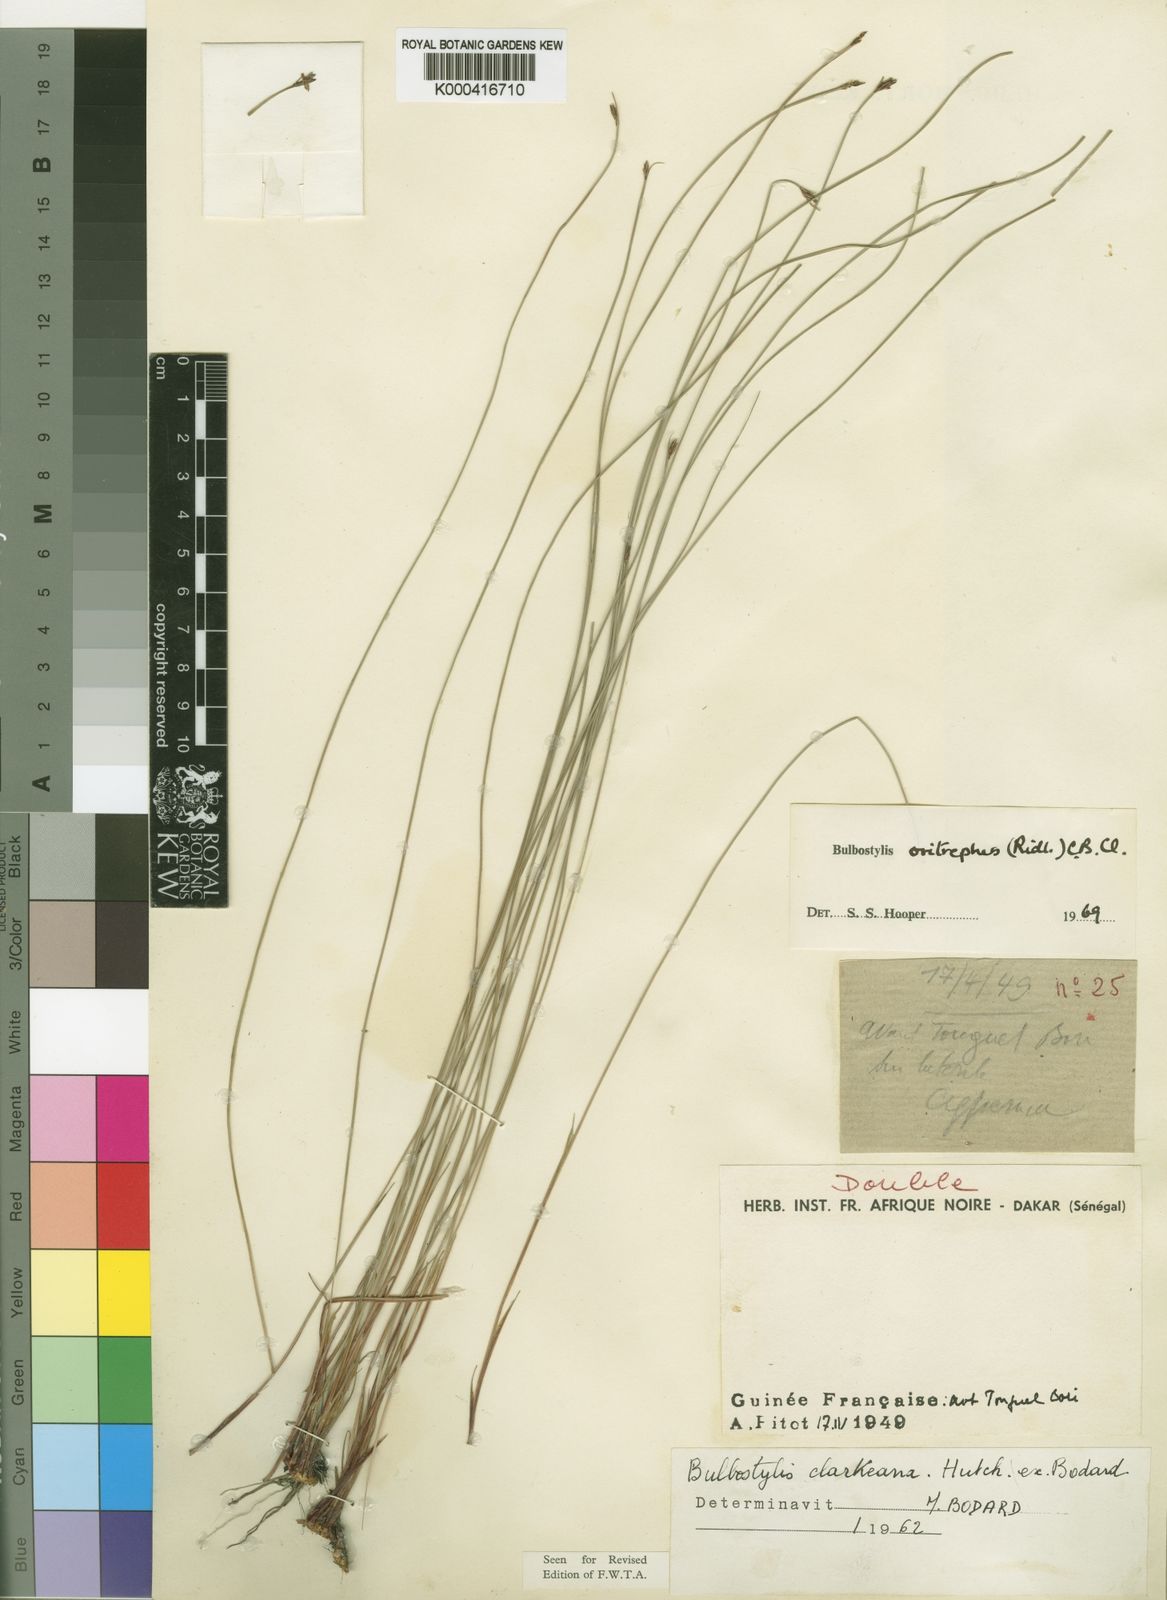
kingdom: Plantae
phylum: Tracheophyta
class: Liliopsida
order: Poales
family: Cyperaceae
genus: Bulbostylis
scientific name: Bulbostylis oritrephes
